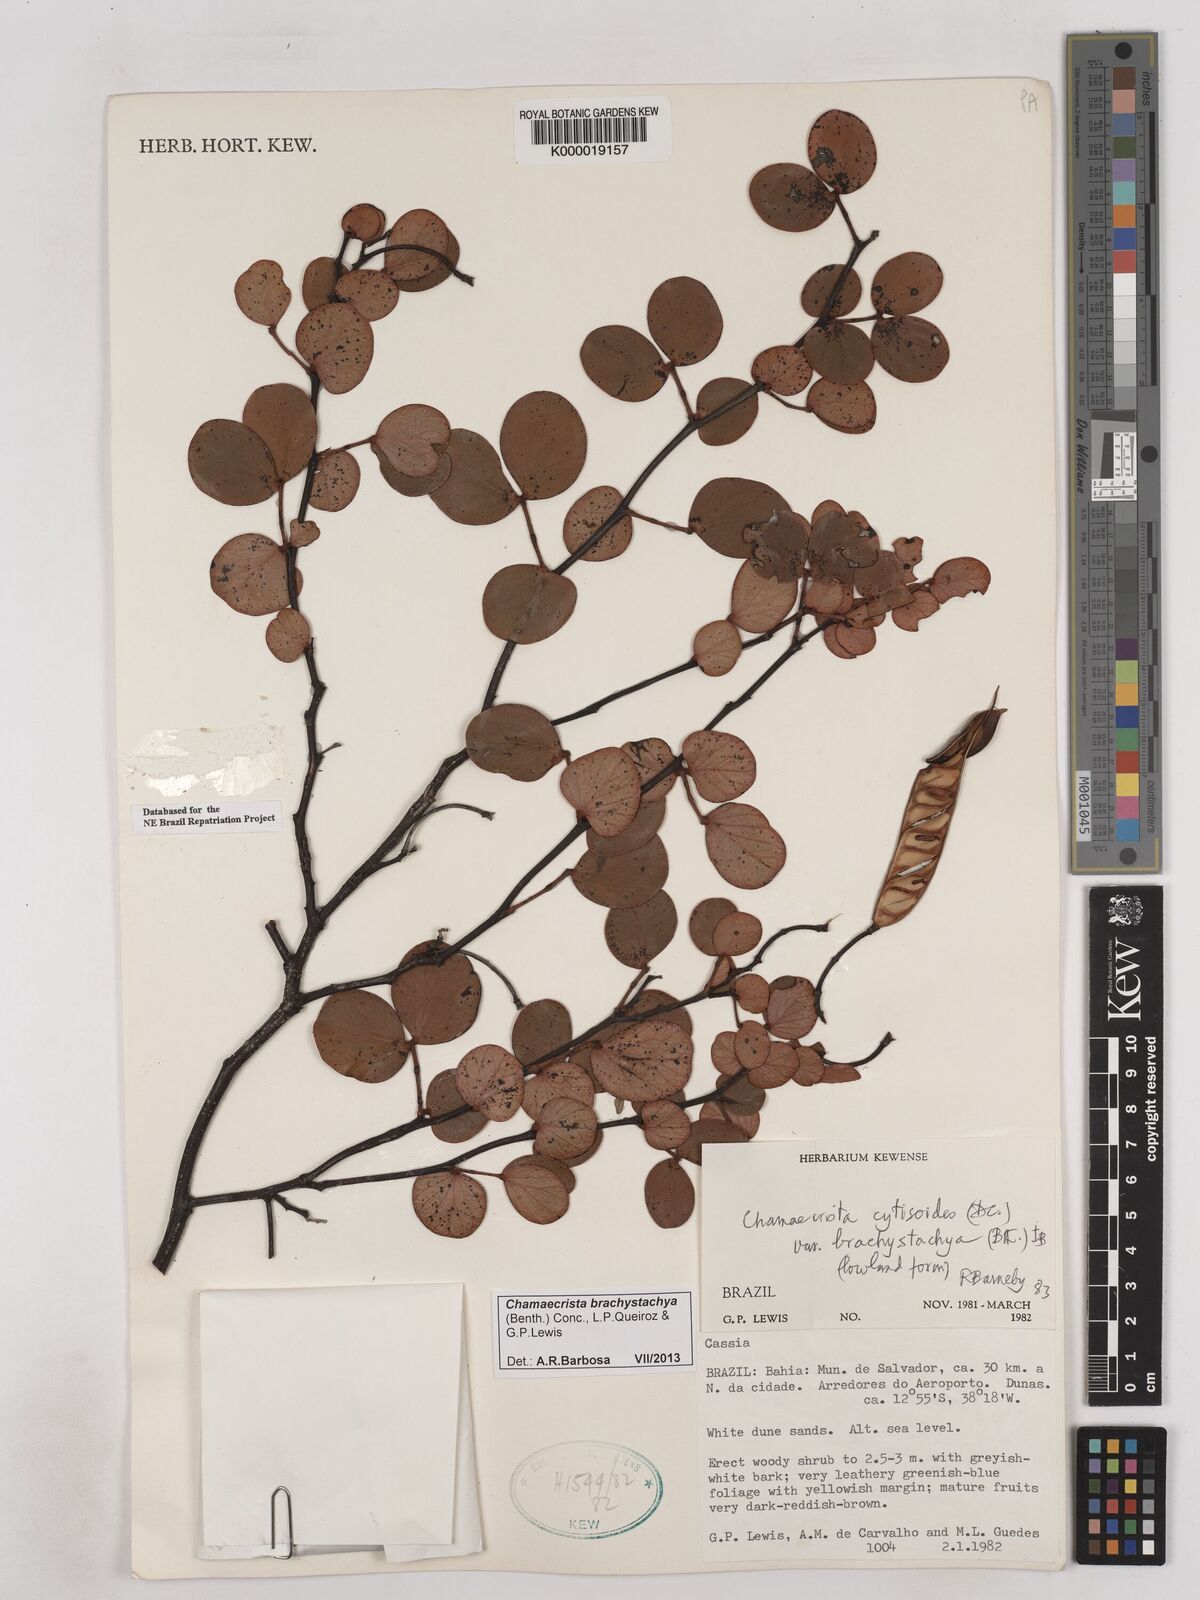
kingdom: Plantae
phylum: Tracheophyta
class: Magnoliopsida
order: Fabales
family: Fabaceae
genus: Chamaecrista
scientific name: Chamaecrista cytisoides
